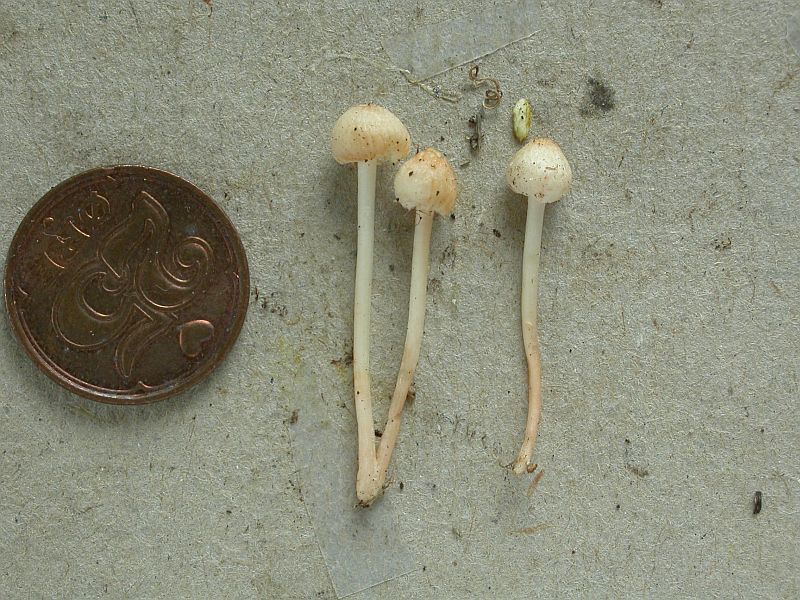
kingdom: Fungi
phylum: Basidiomycota
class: Agaricomycetes
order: Agaricales
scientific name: Agaricales
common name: champignonordenen
